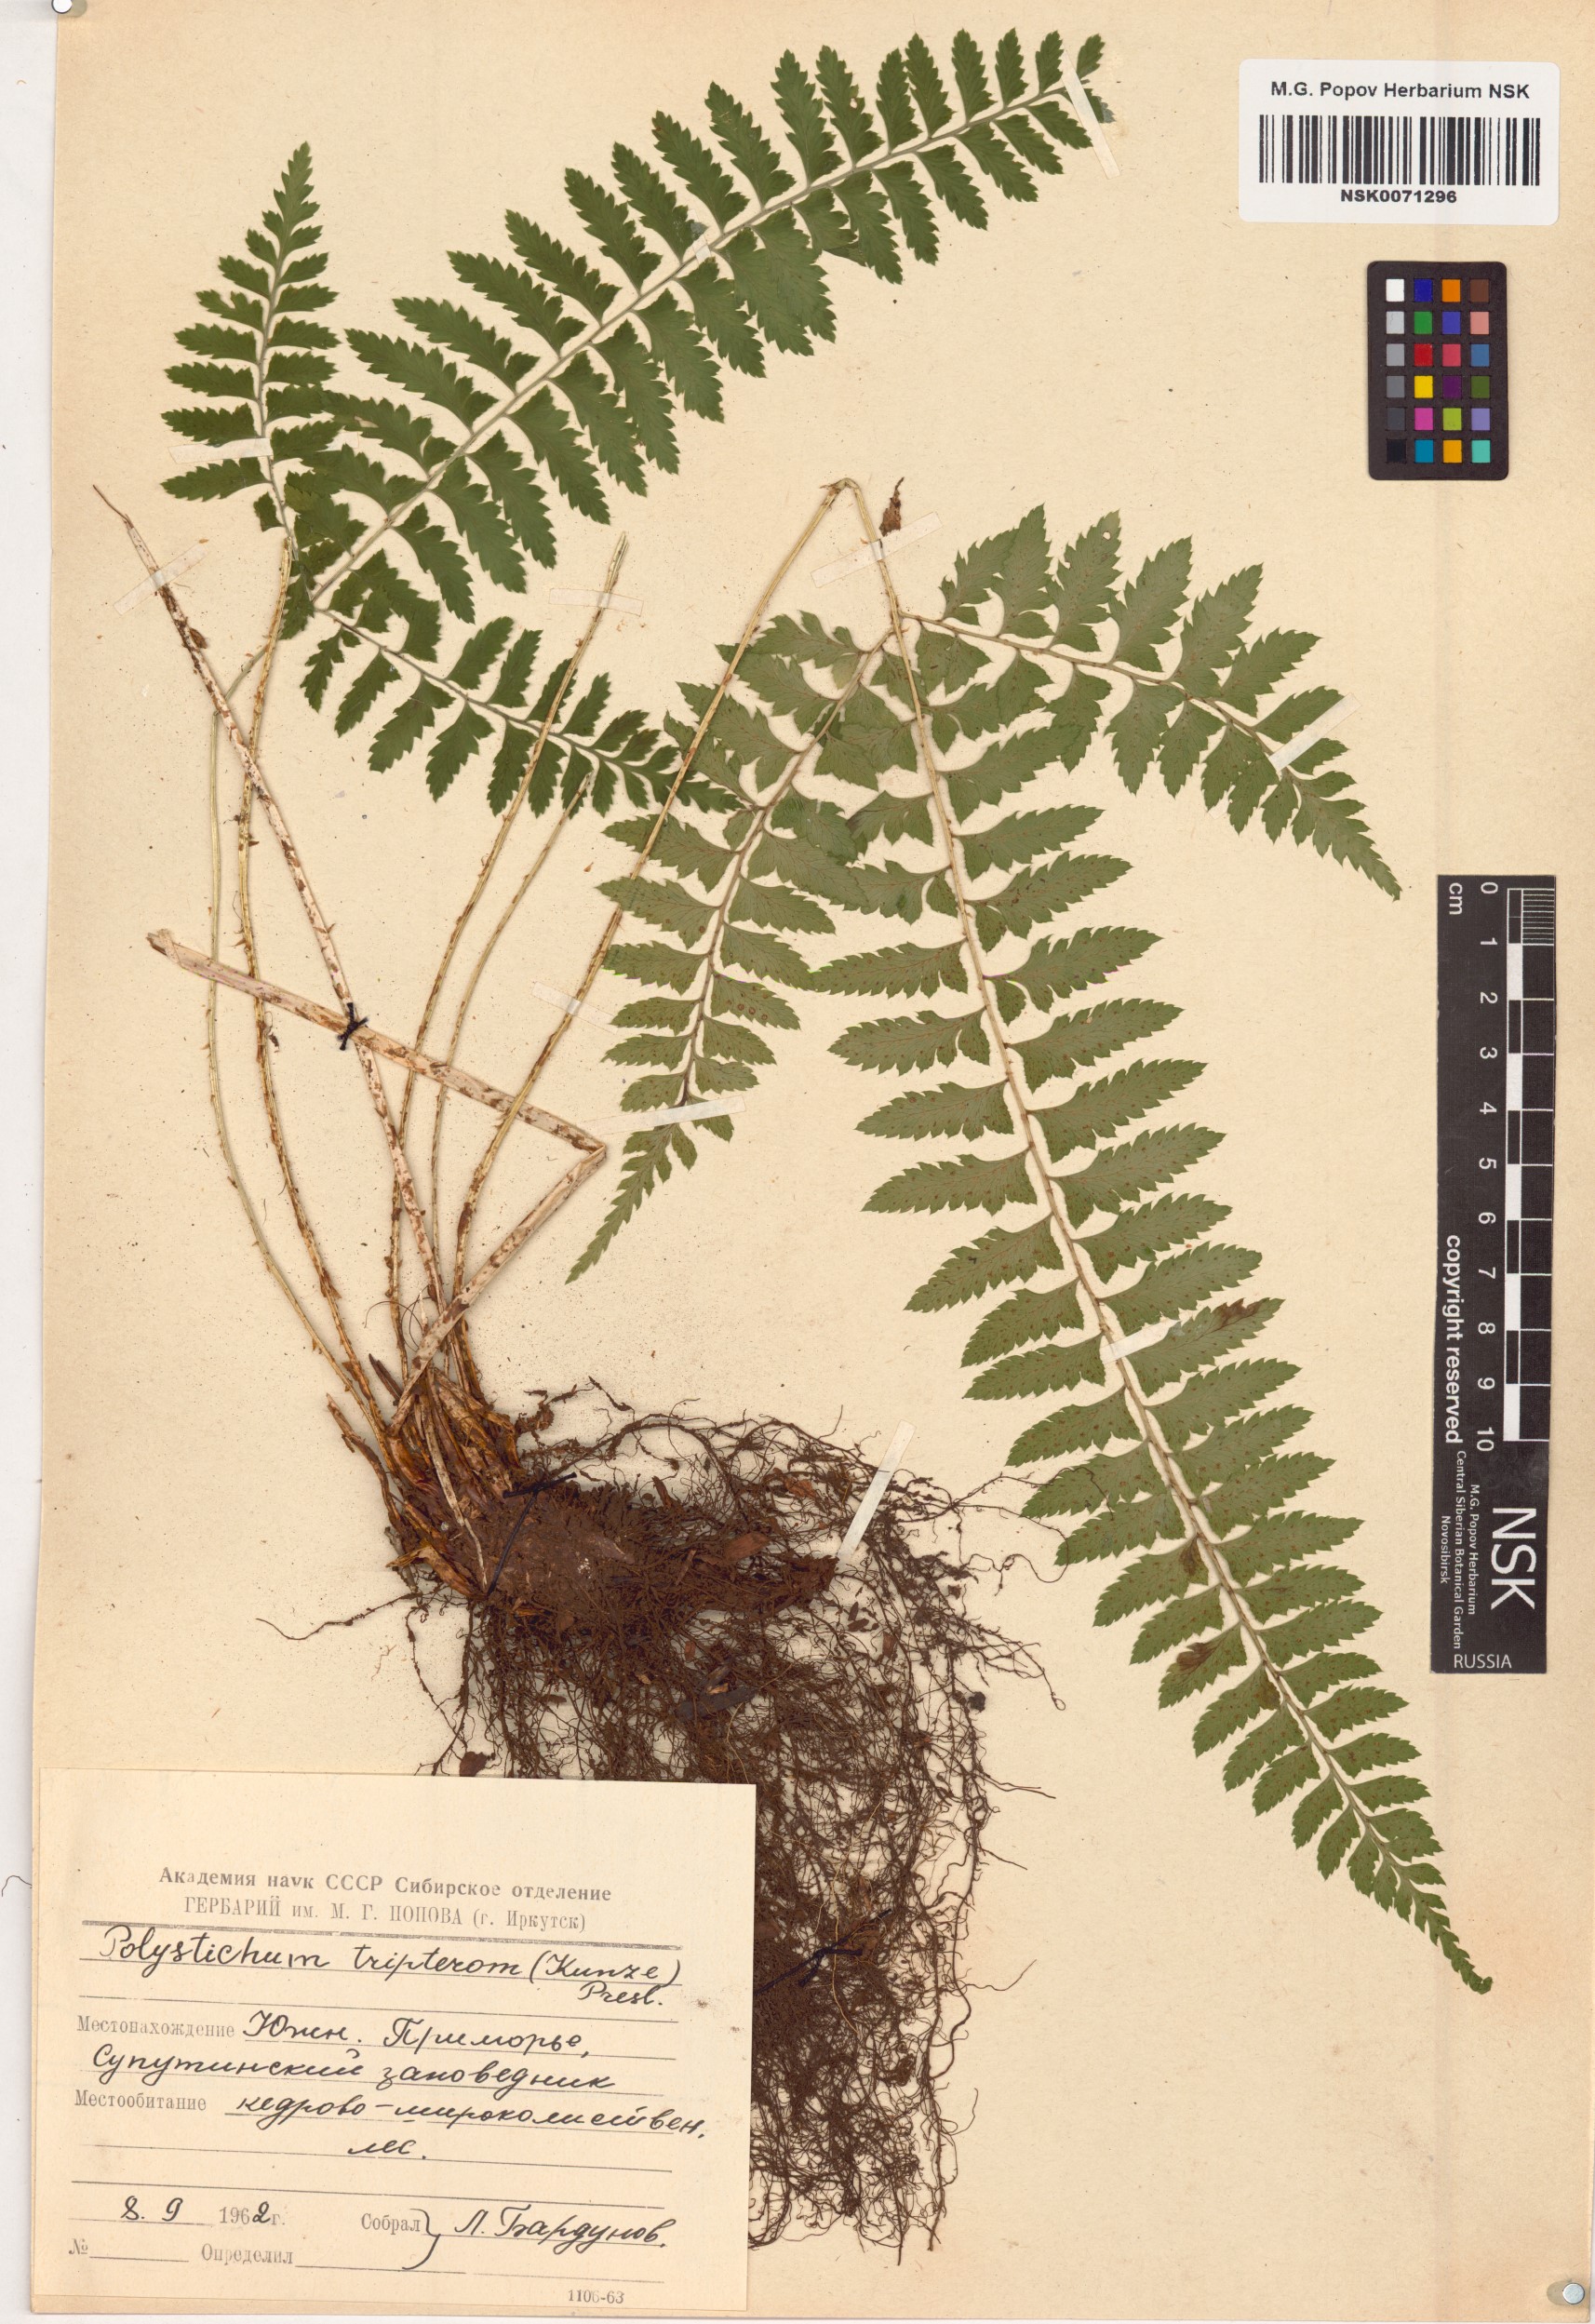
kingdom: Plantae
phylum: Tracheophyta
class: Polypodiopsida
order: Polypodiales
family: Dryopteridaceae
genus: Polystichum
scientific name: Polystichum tripteron
